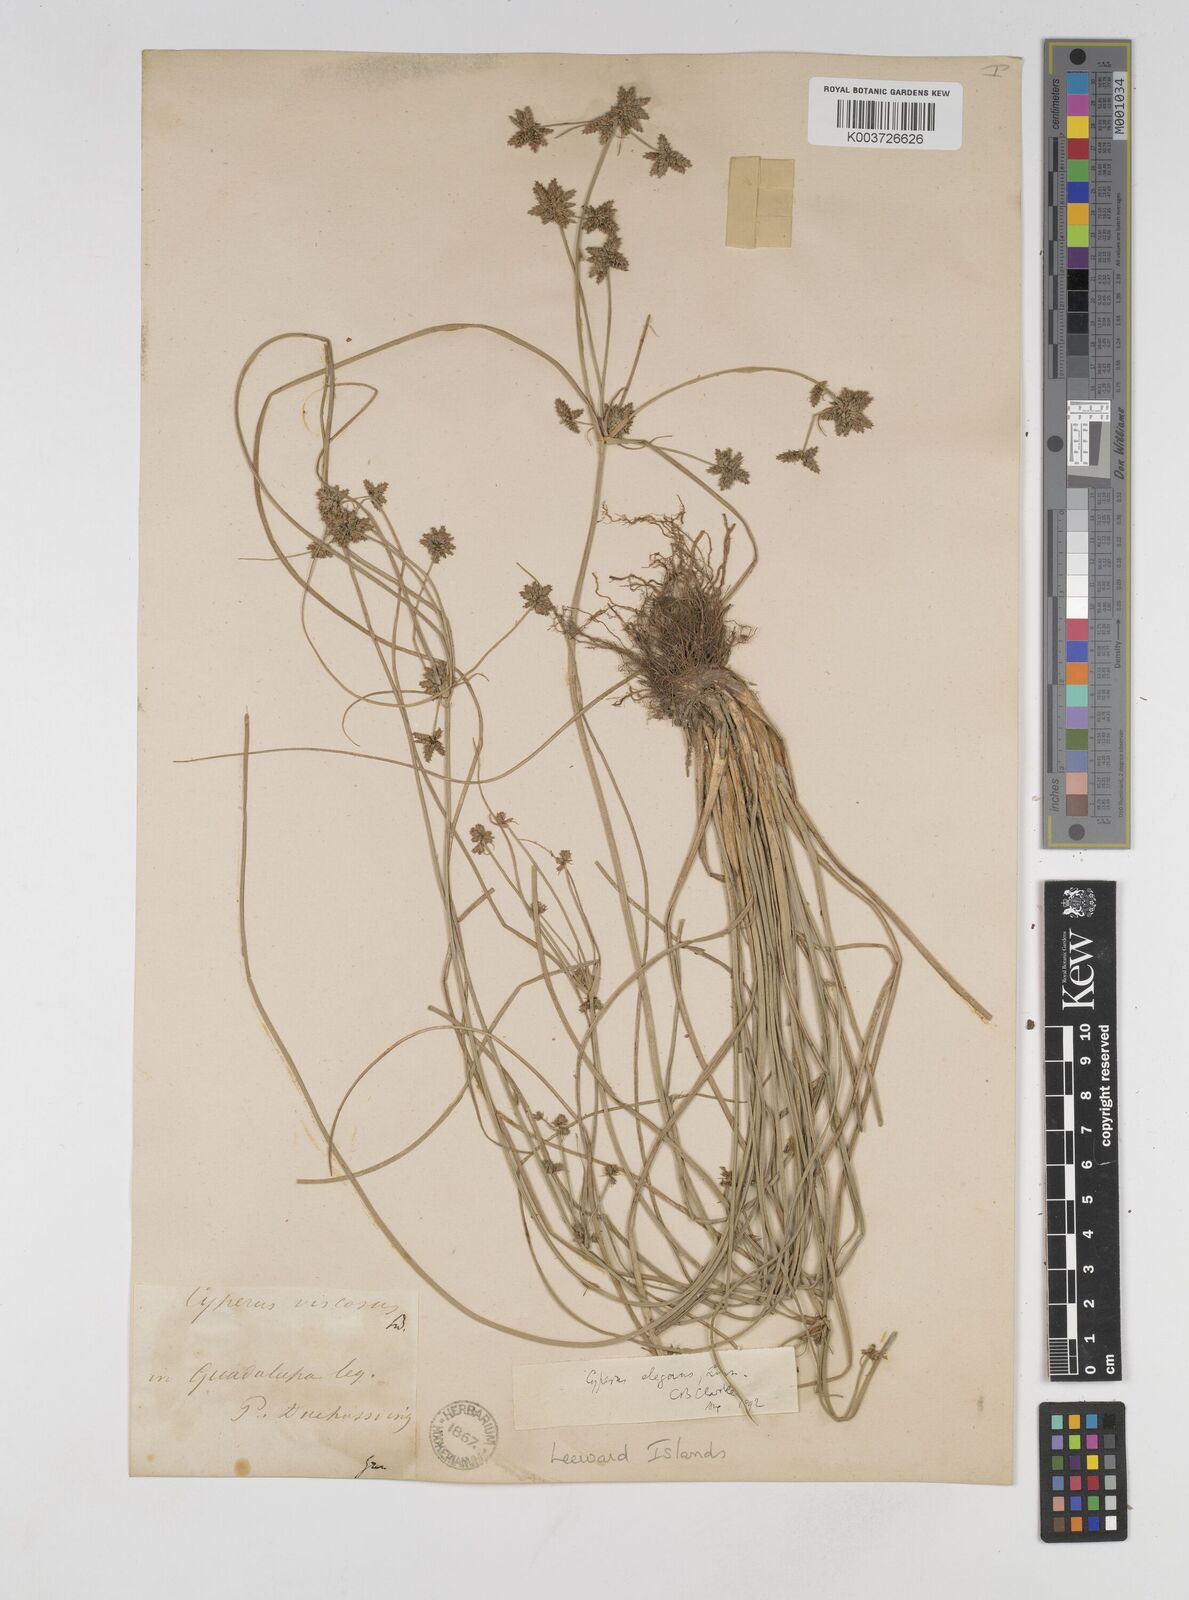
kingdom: Plantae
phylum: Tracheophyta
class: Liliopsida
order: Poales
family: Cyperaceae
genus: Cyperus
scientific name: Cyperus elegans
